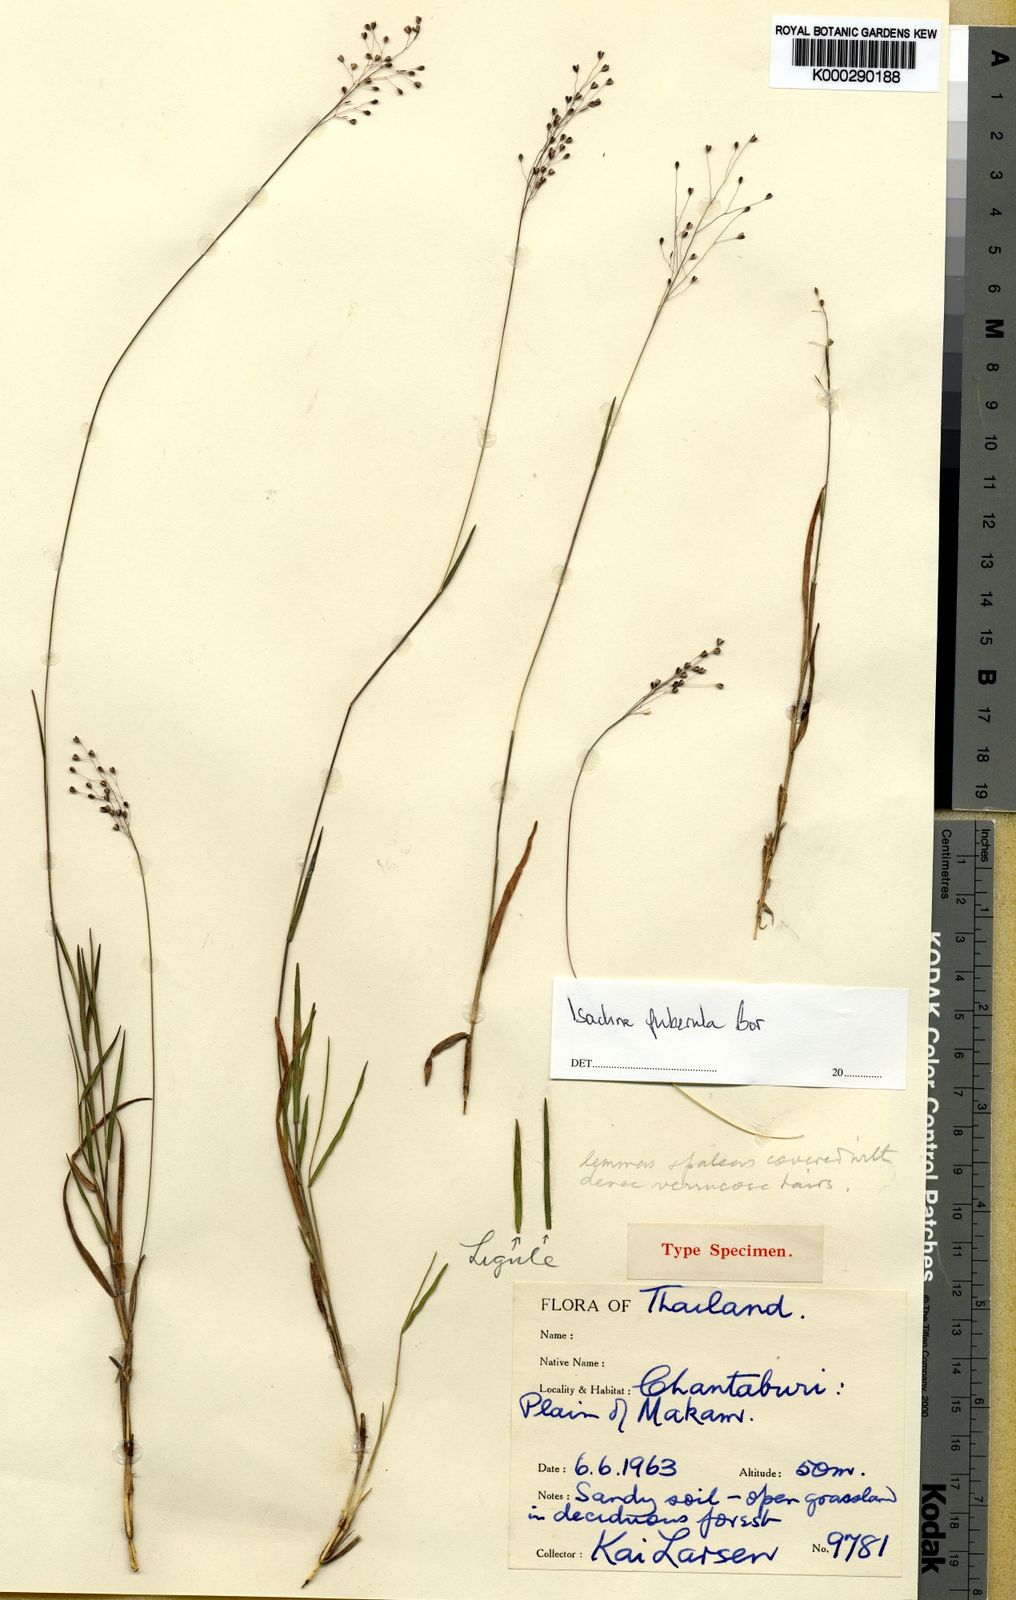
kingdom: Plantae
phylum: Tracheophyta
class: Liliopsida
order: Poales
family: Poaceae
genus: Isachne
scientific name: Isachne puberula
